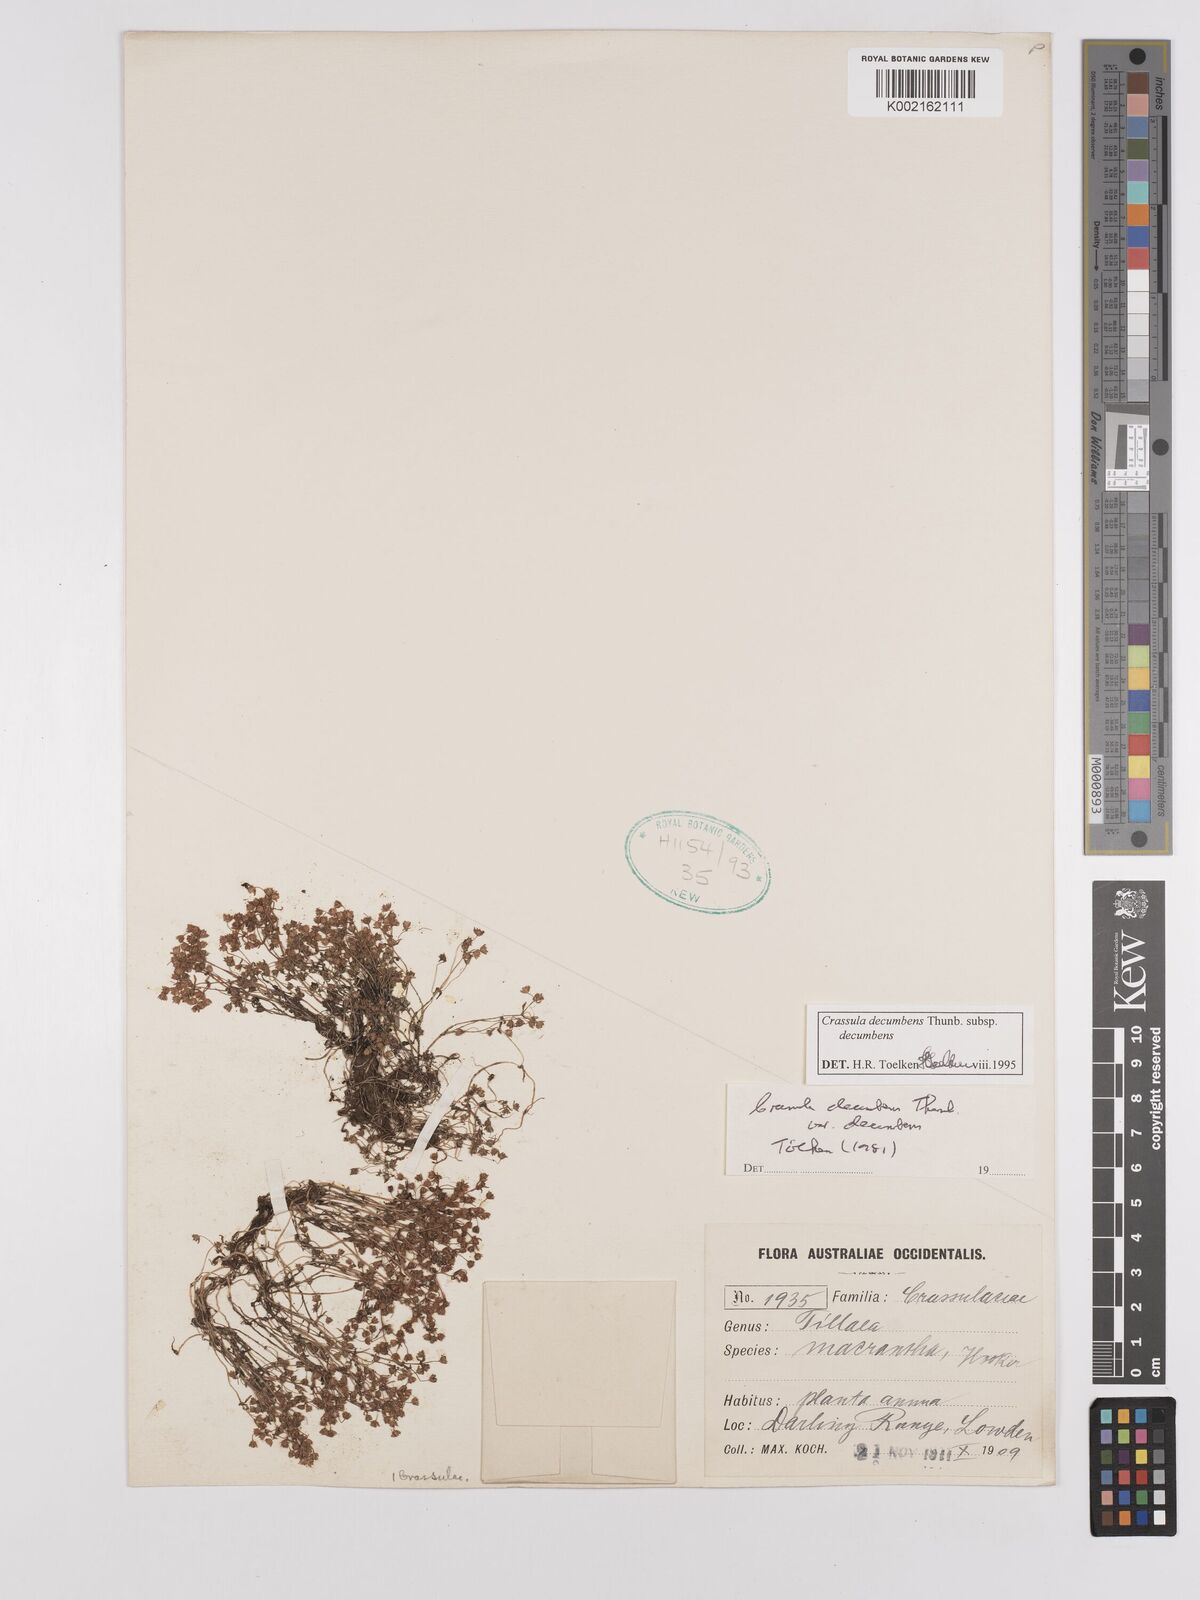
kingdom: Plantae
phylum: Tracheophyta
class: Magnoliopsida
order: Saxifragales
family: Crassulaceae
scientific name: Crassulaceae
